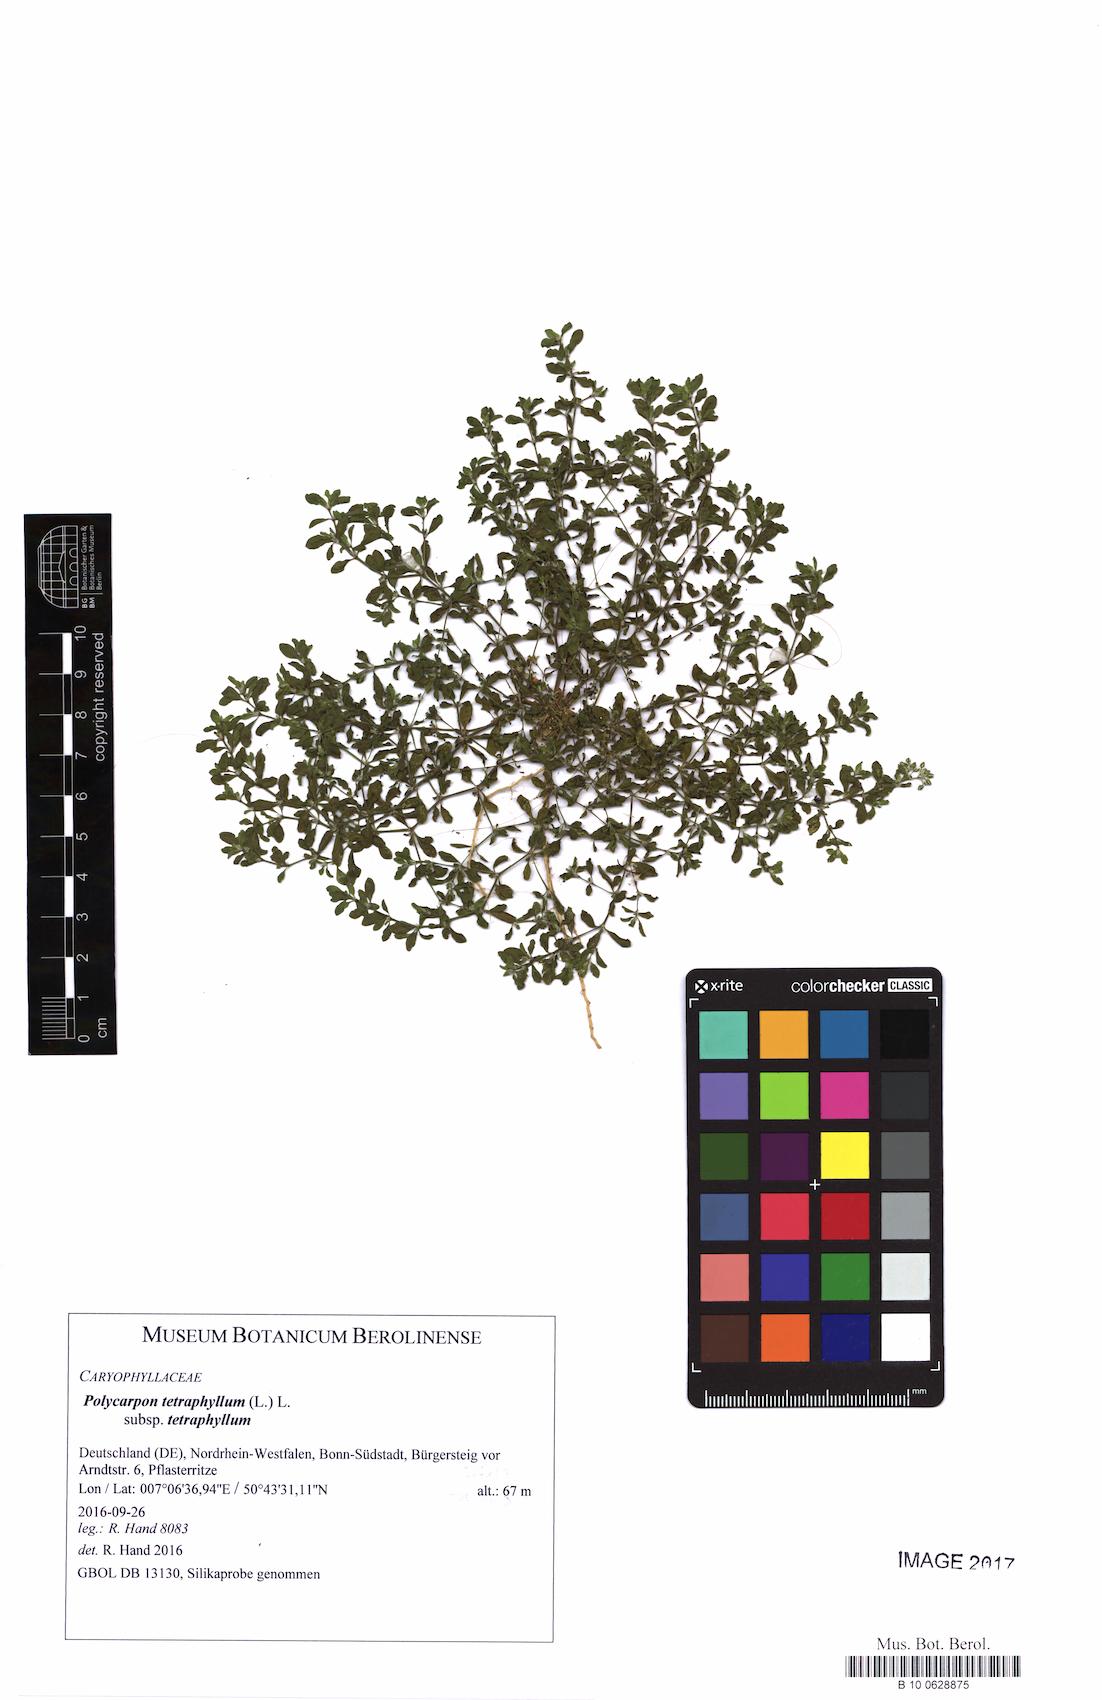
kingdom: Plantae
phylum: Tracheophyta
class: Magnoliopsida
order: Caryophyllales
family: Caryophyllaceae
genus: Polycarpon
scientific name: Polycarpon tetraphyllum
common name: Four-leaved all-seed
